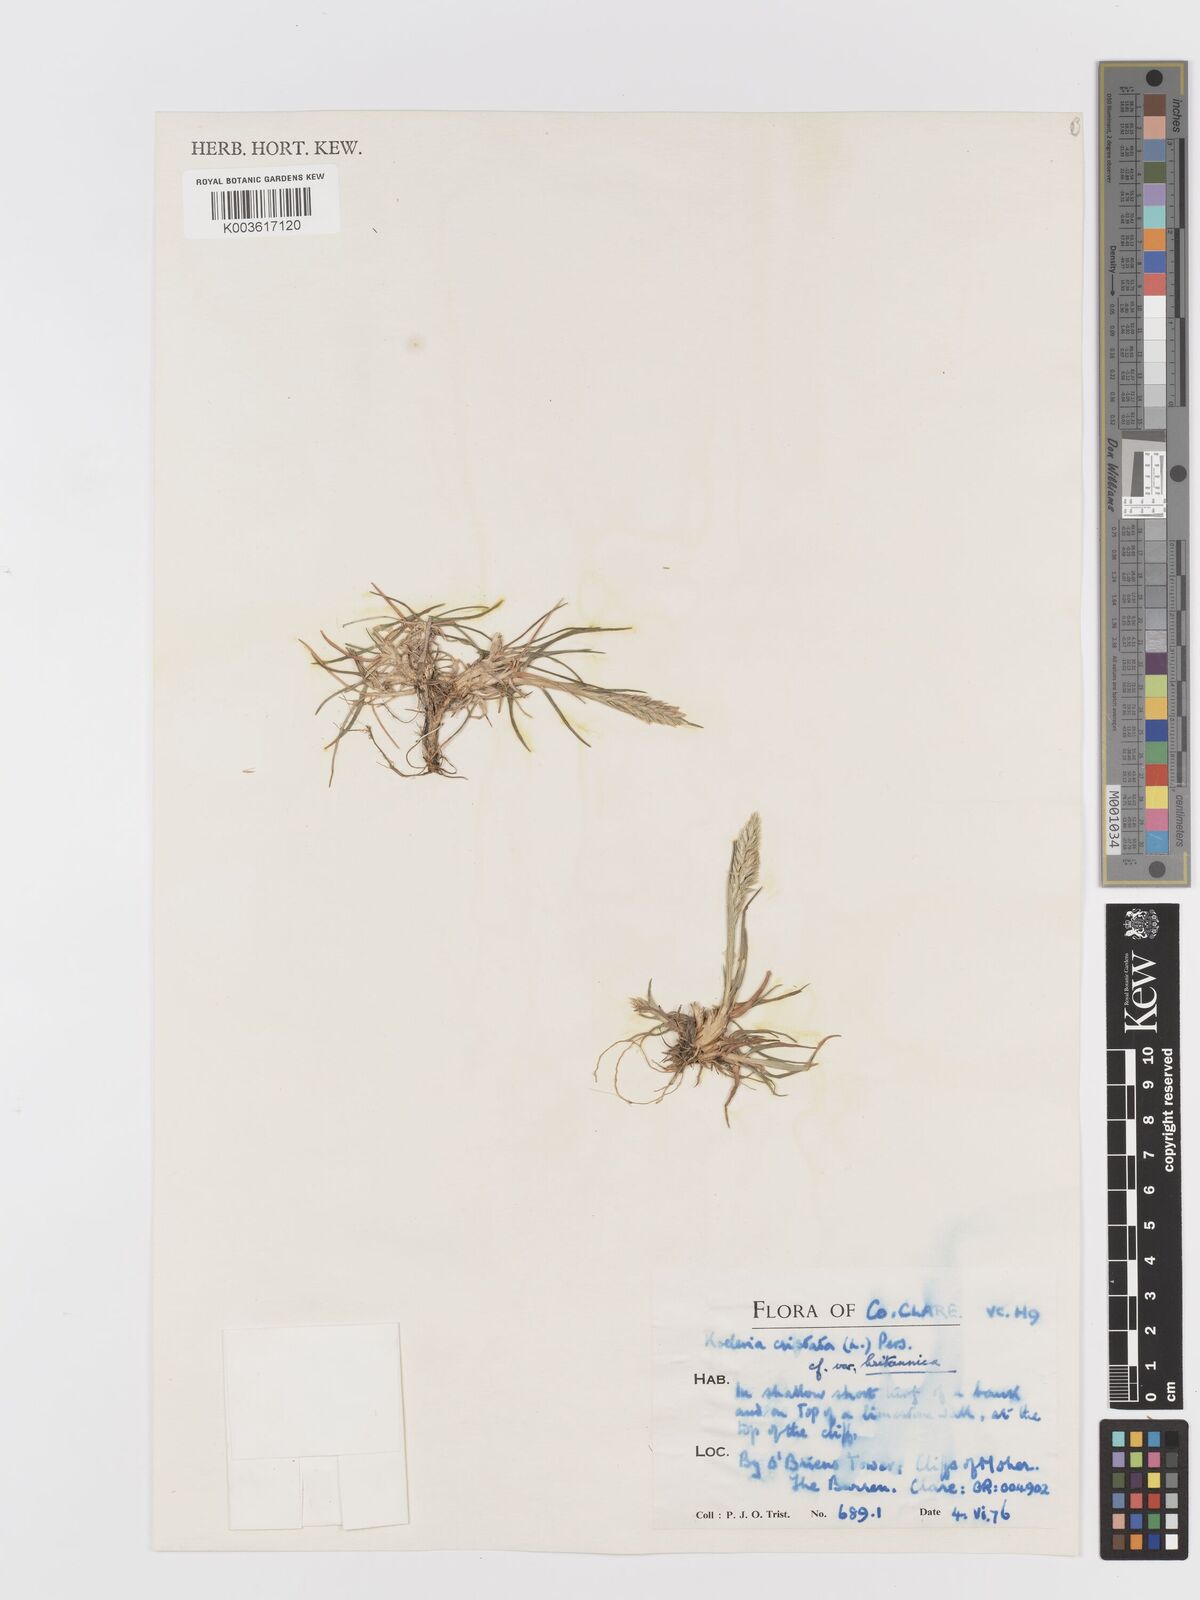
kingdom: Plantae
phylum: Tracheophyta
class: Liliopsida
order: Poales
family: Poaceae
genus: Koeleria
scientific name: Koeleria macrantha
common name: Crested hair-grass
